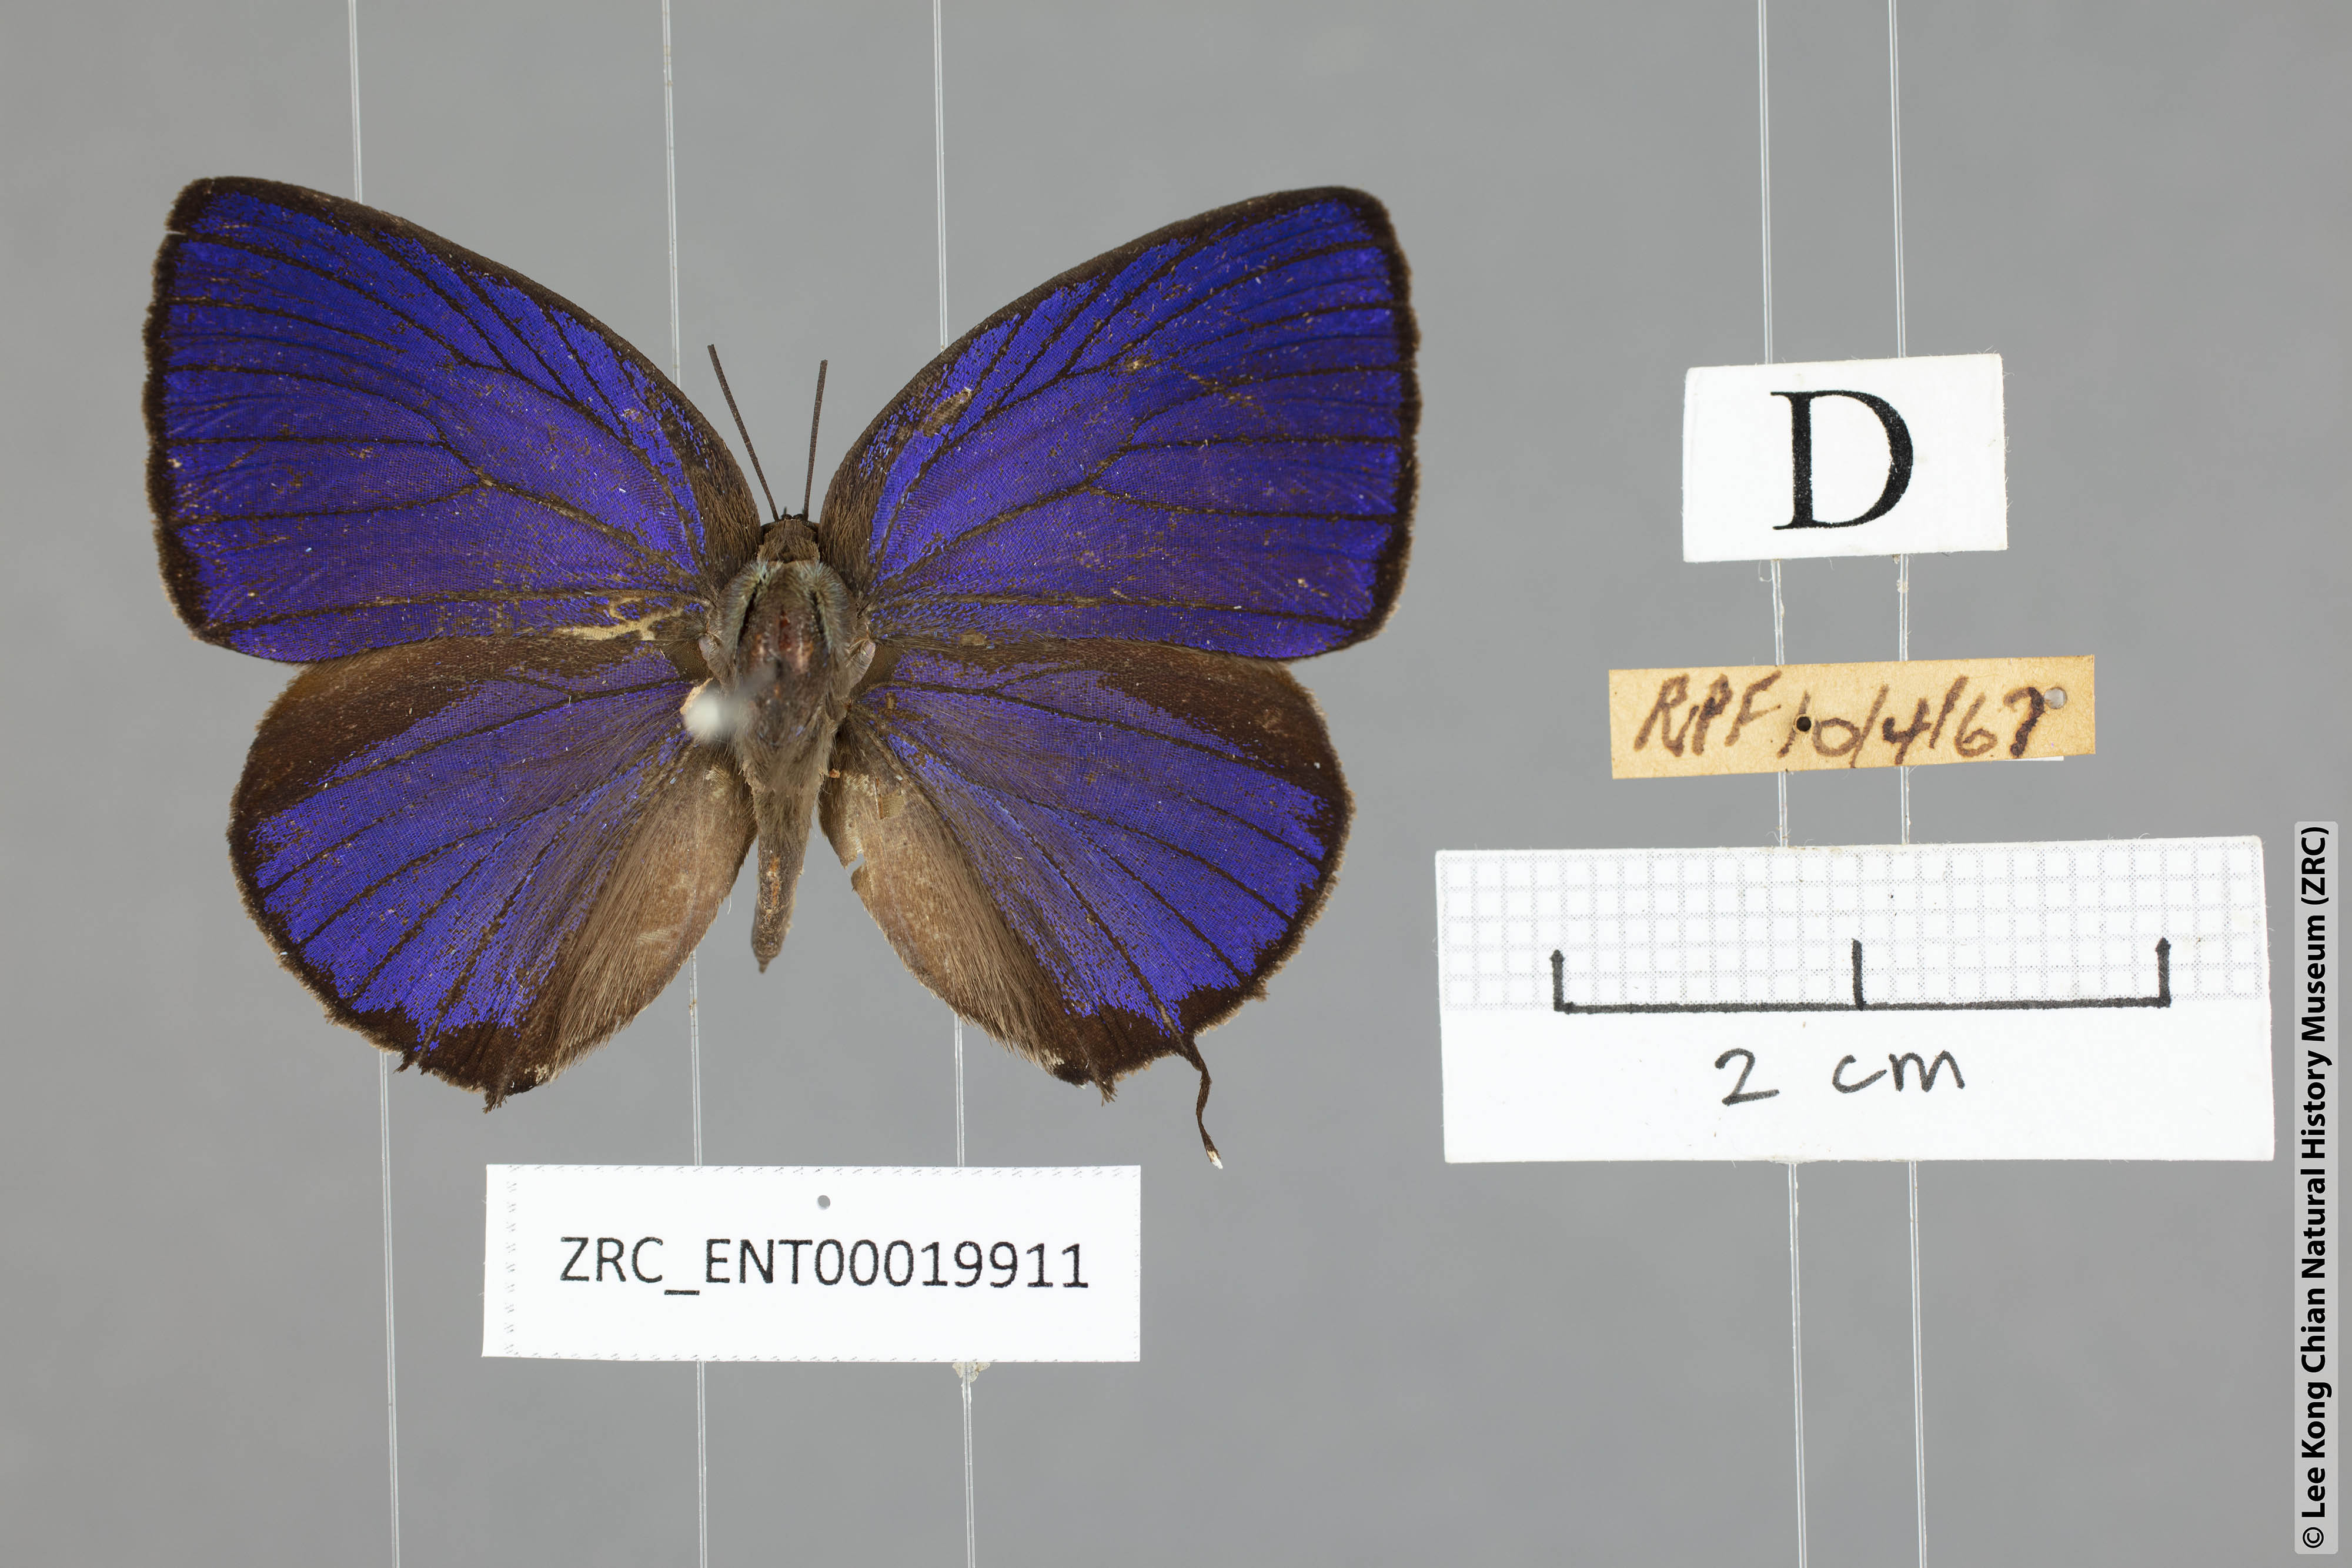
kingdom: Animalia
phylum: Arthropoda
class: Insecta
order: Lepidoptera
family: Lycaenidae
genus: Arhopala
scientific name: Arhopala vihara
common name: Large spotted oakblue
